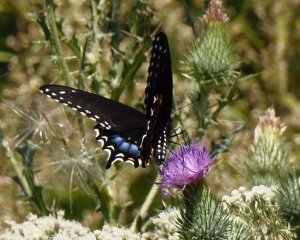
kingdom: Animalia
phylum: Arthropoda
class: Insecta
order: Lepidoptera
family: Papilionidae
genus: Papilio
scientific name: Papilio polyxenes
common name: Black Swallowtail
